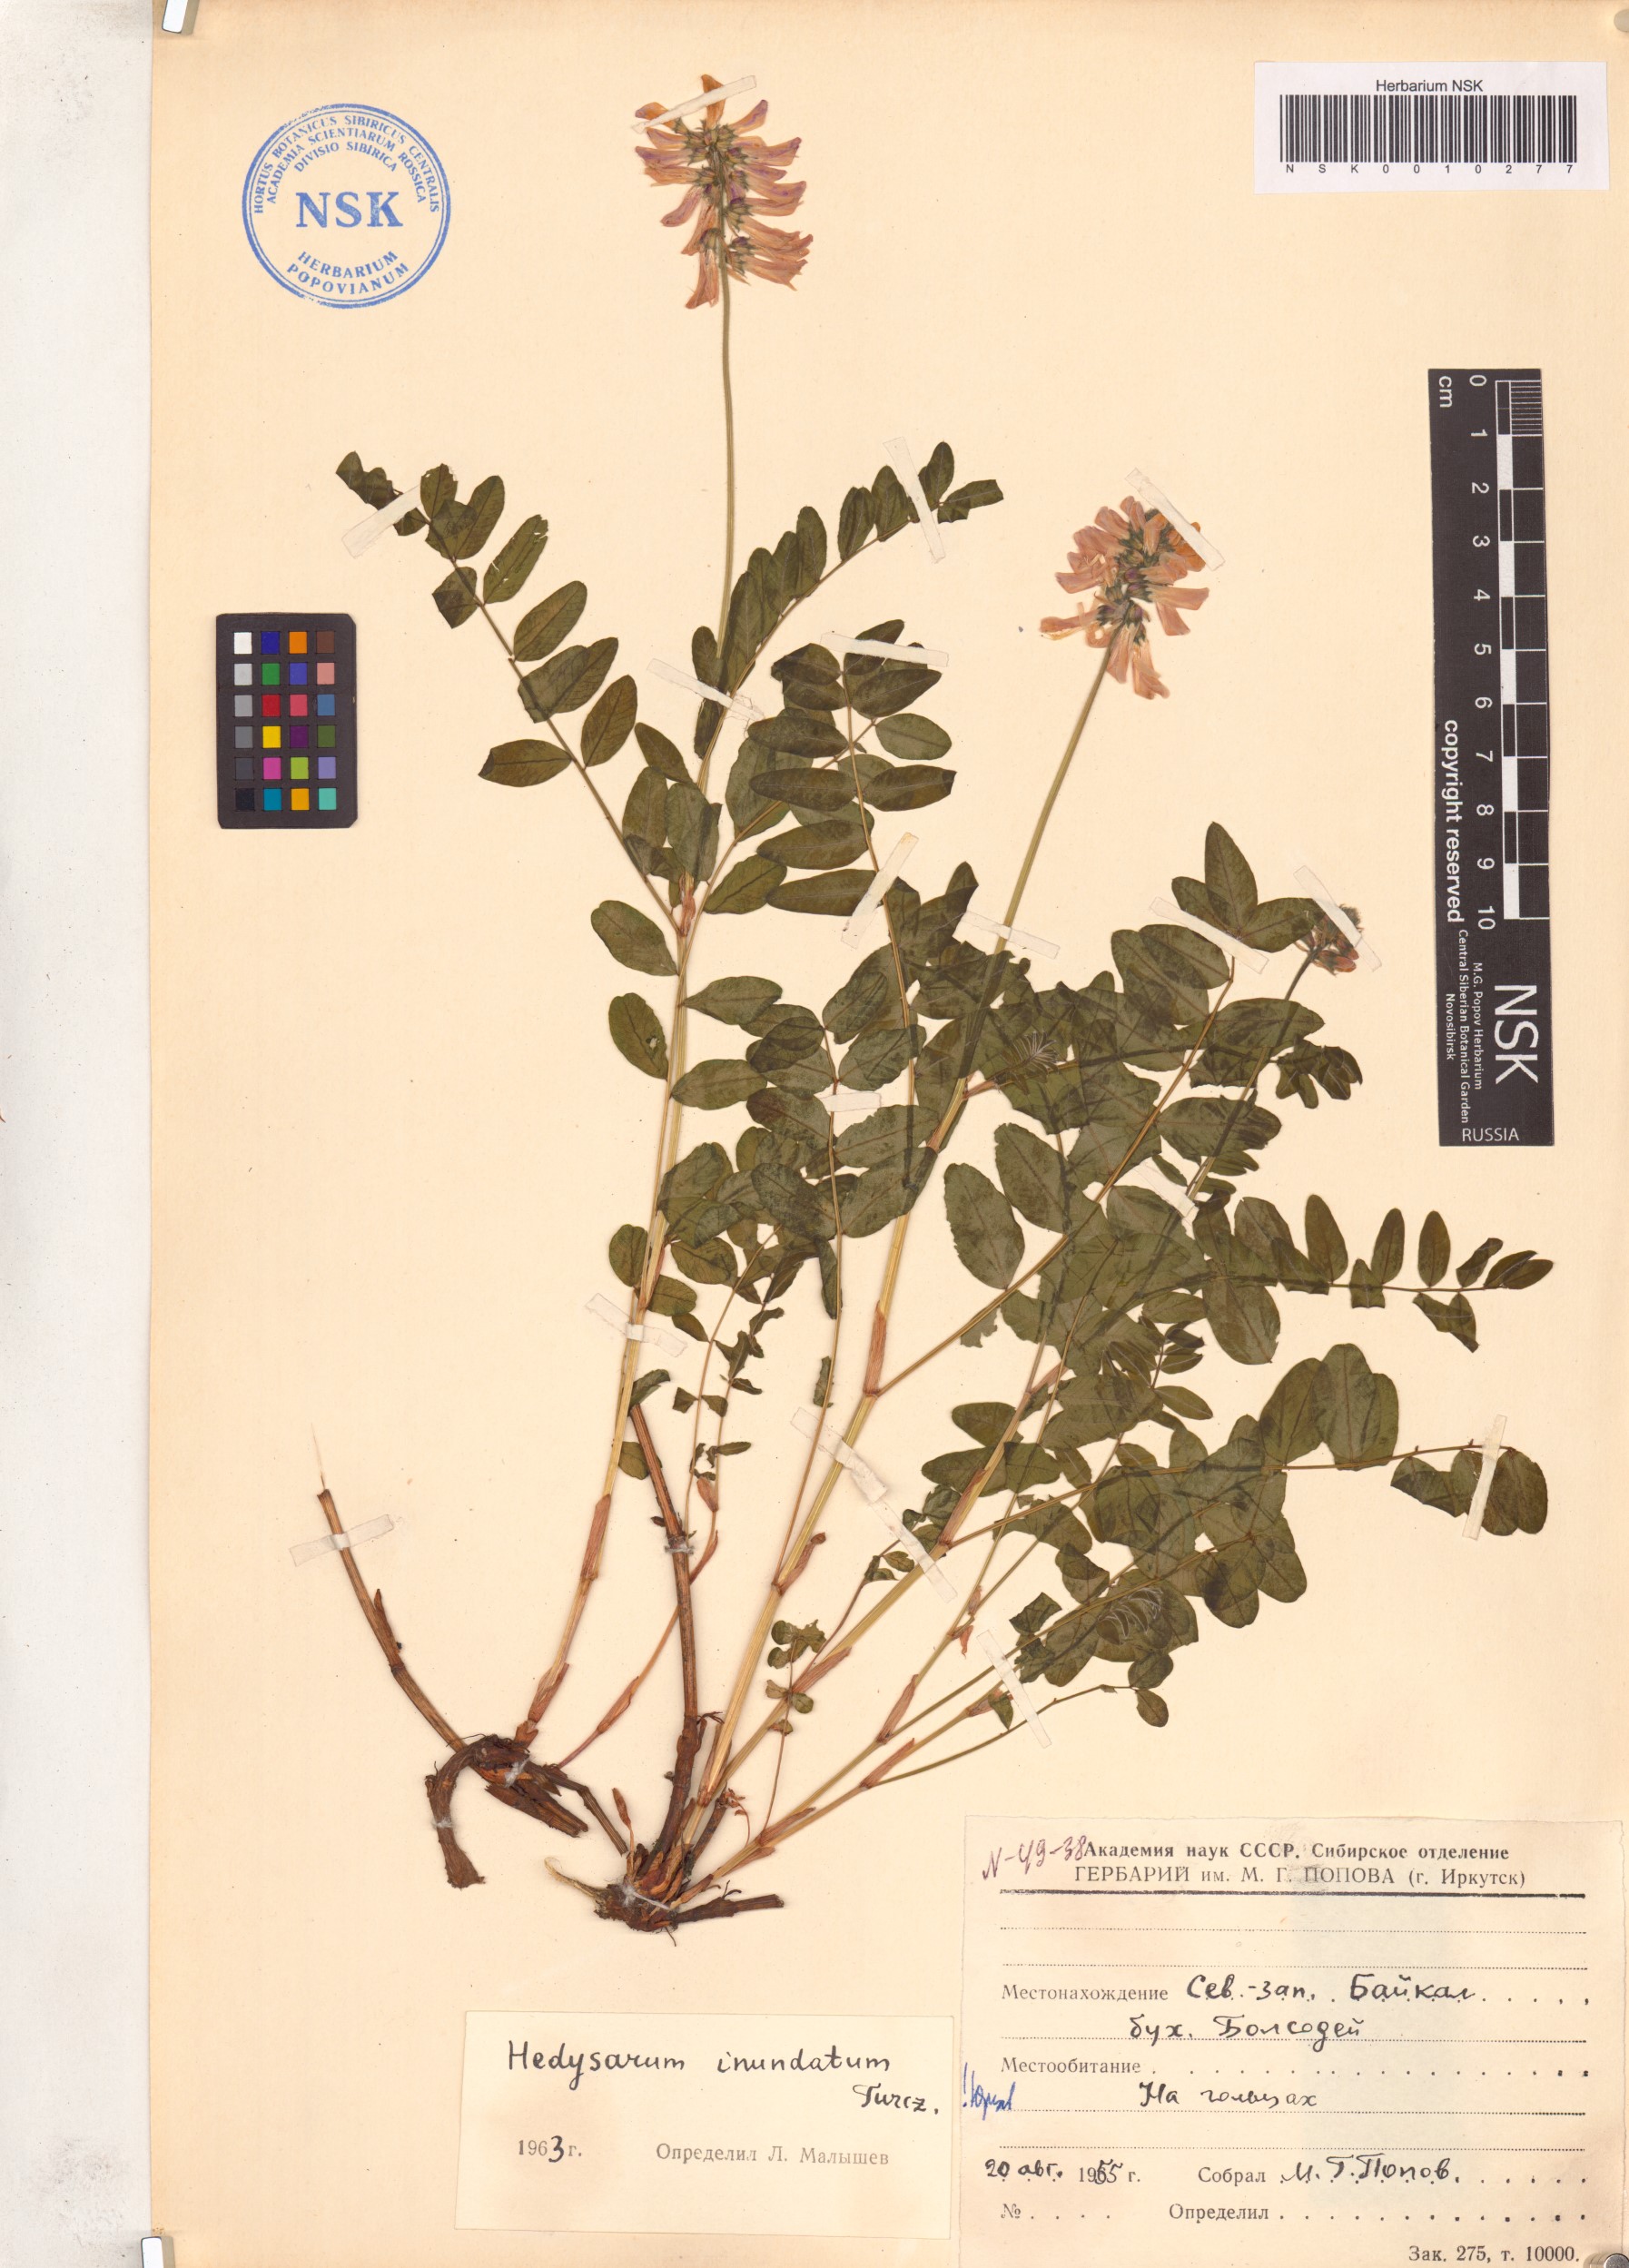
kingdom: Plantae
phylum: Tracheophyta
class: Magnoliopsida
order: Fabales
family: Fabaceae
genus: Hedysarum
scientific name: Hedysarum inundatum
